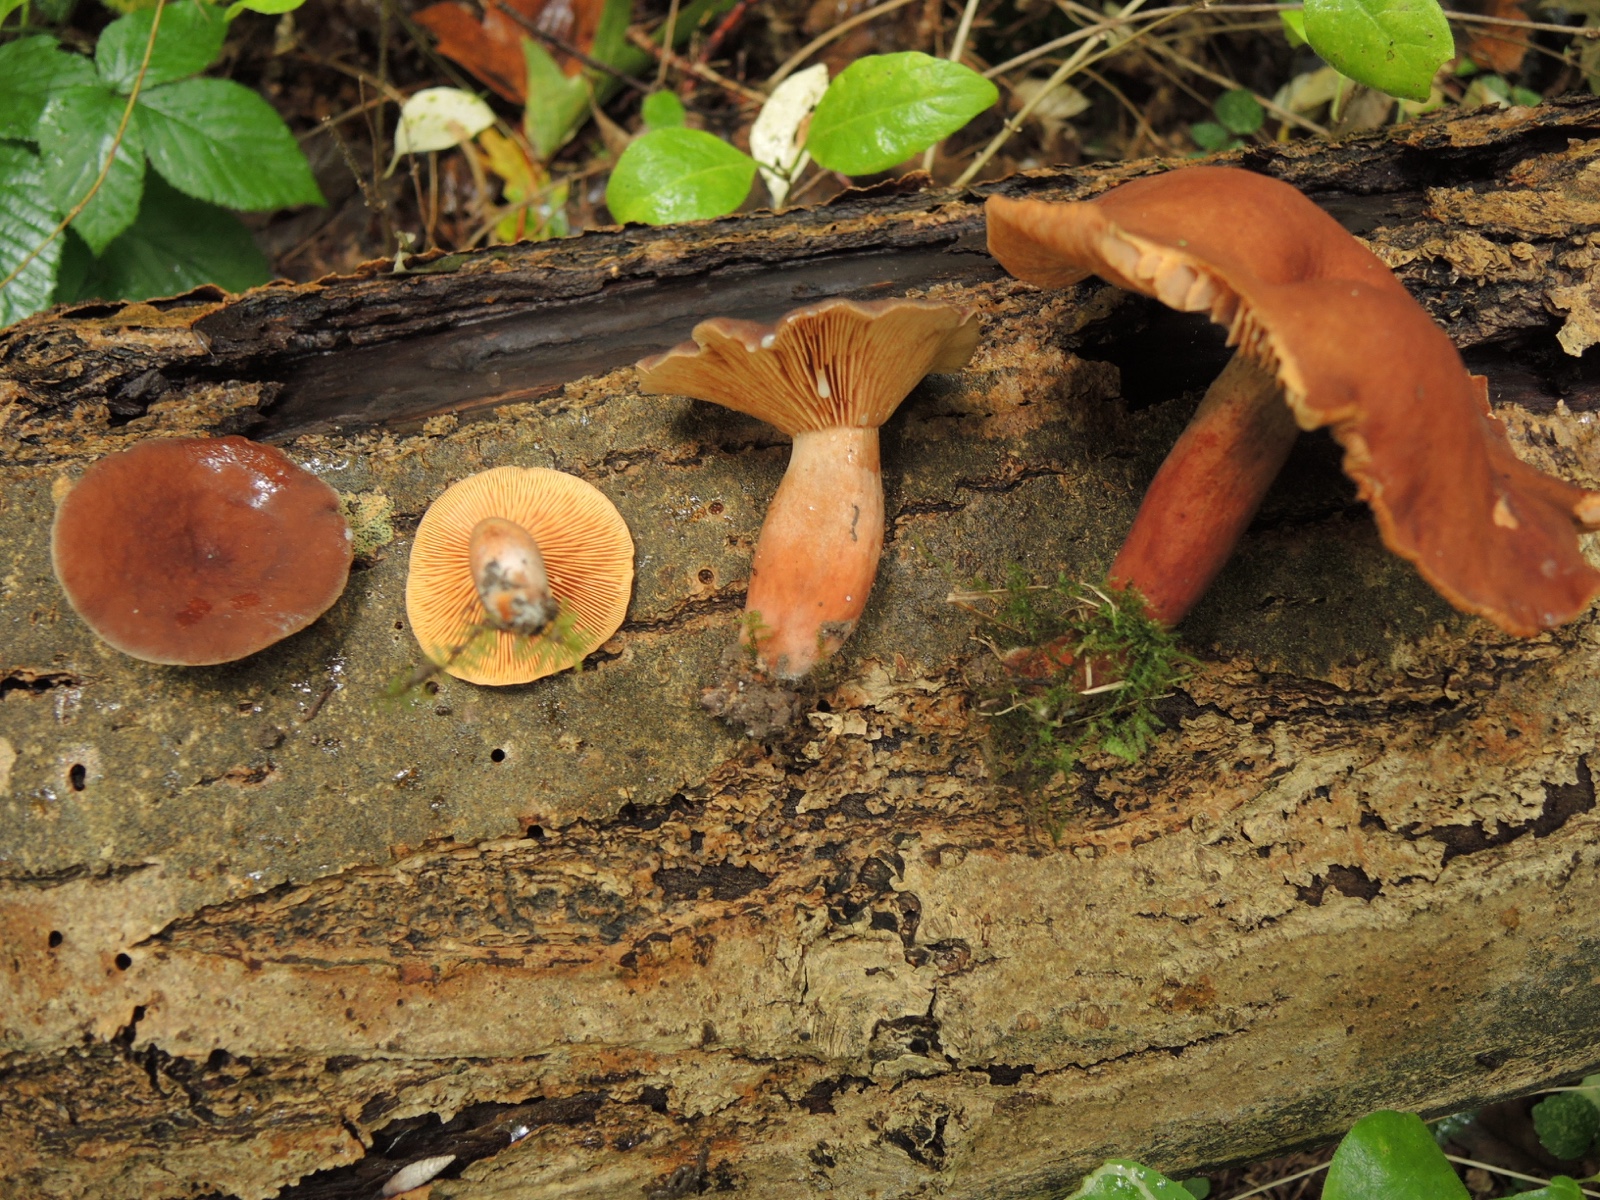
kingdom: Fungi
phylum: Basidiomycota
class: Agaricomycetes
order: Russulales
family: Russulaceae
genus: Lactarius
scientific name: Lactarius serifluus
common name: tæge-mælkehat
